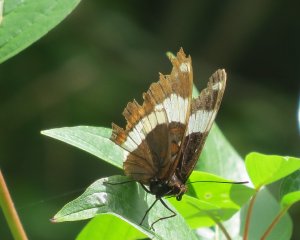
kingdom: Animalia
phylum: Arthropoda
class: Insecta
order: Lepidoptera
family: Nymphalidae
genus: Limenitis
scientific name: Limenitis arthemis
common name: Red-spotted Admiral
